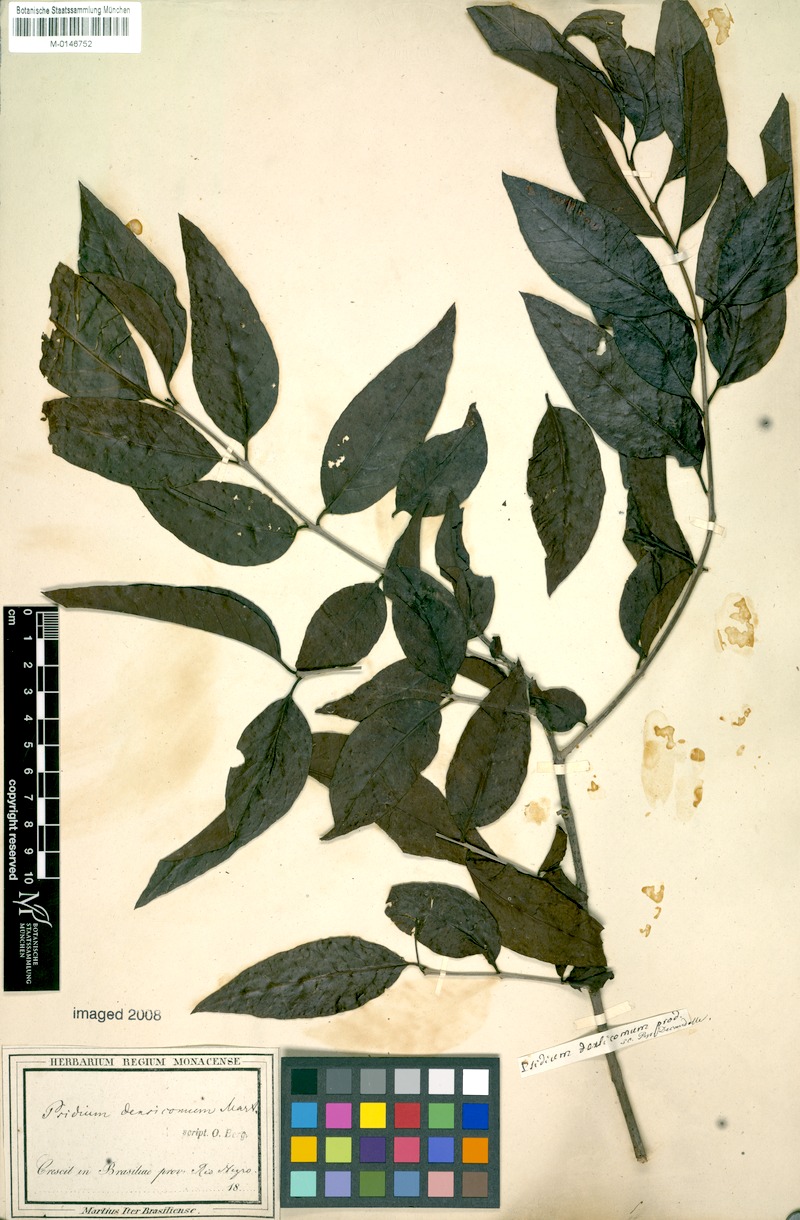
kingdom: Plantae
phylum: Tracheophyta
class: Magnoliopsida
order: Myrtales
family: Myrtaceae
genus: Psidium
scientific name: Psidium densicomum
